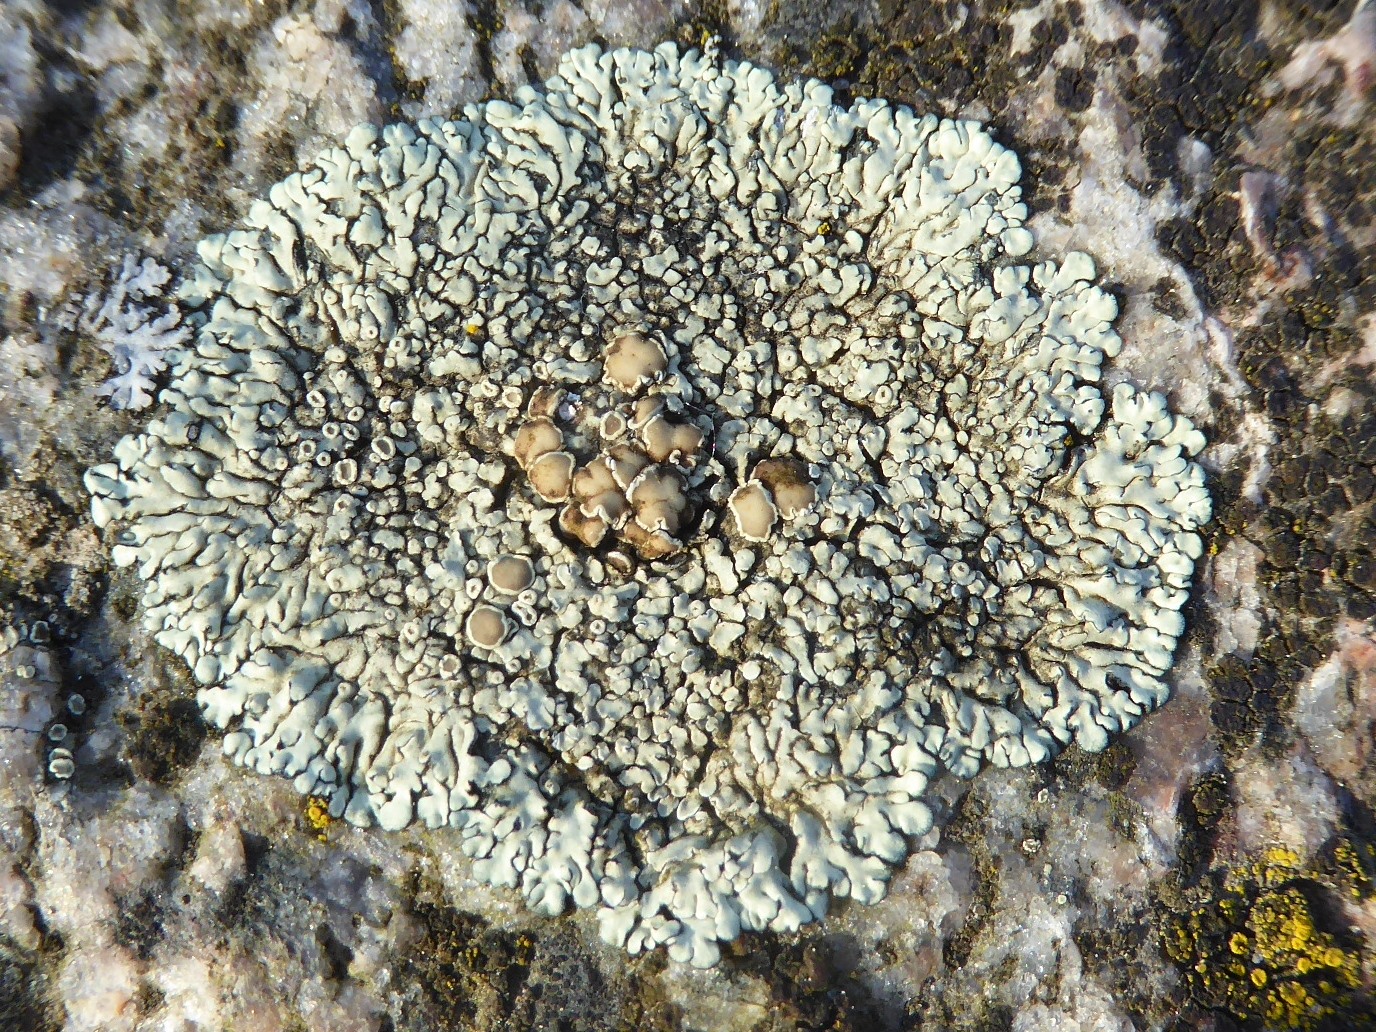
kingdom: Fungi
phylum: Ascomycota
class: Lecanoromycetes
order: Lecanorales
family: Lecanoraceae
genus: Protoparmeliopsis
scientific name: Protoparmeliopsis muralis
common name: randfliget kantskivelav
